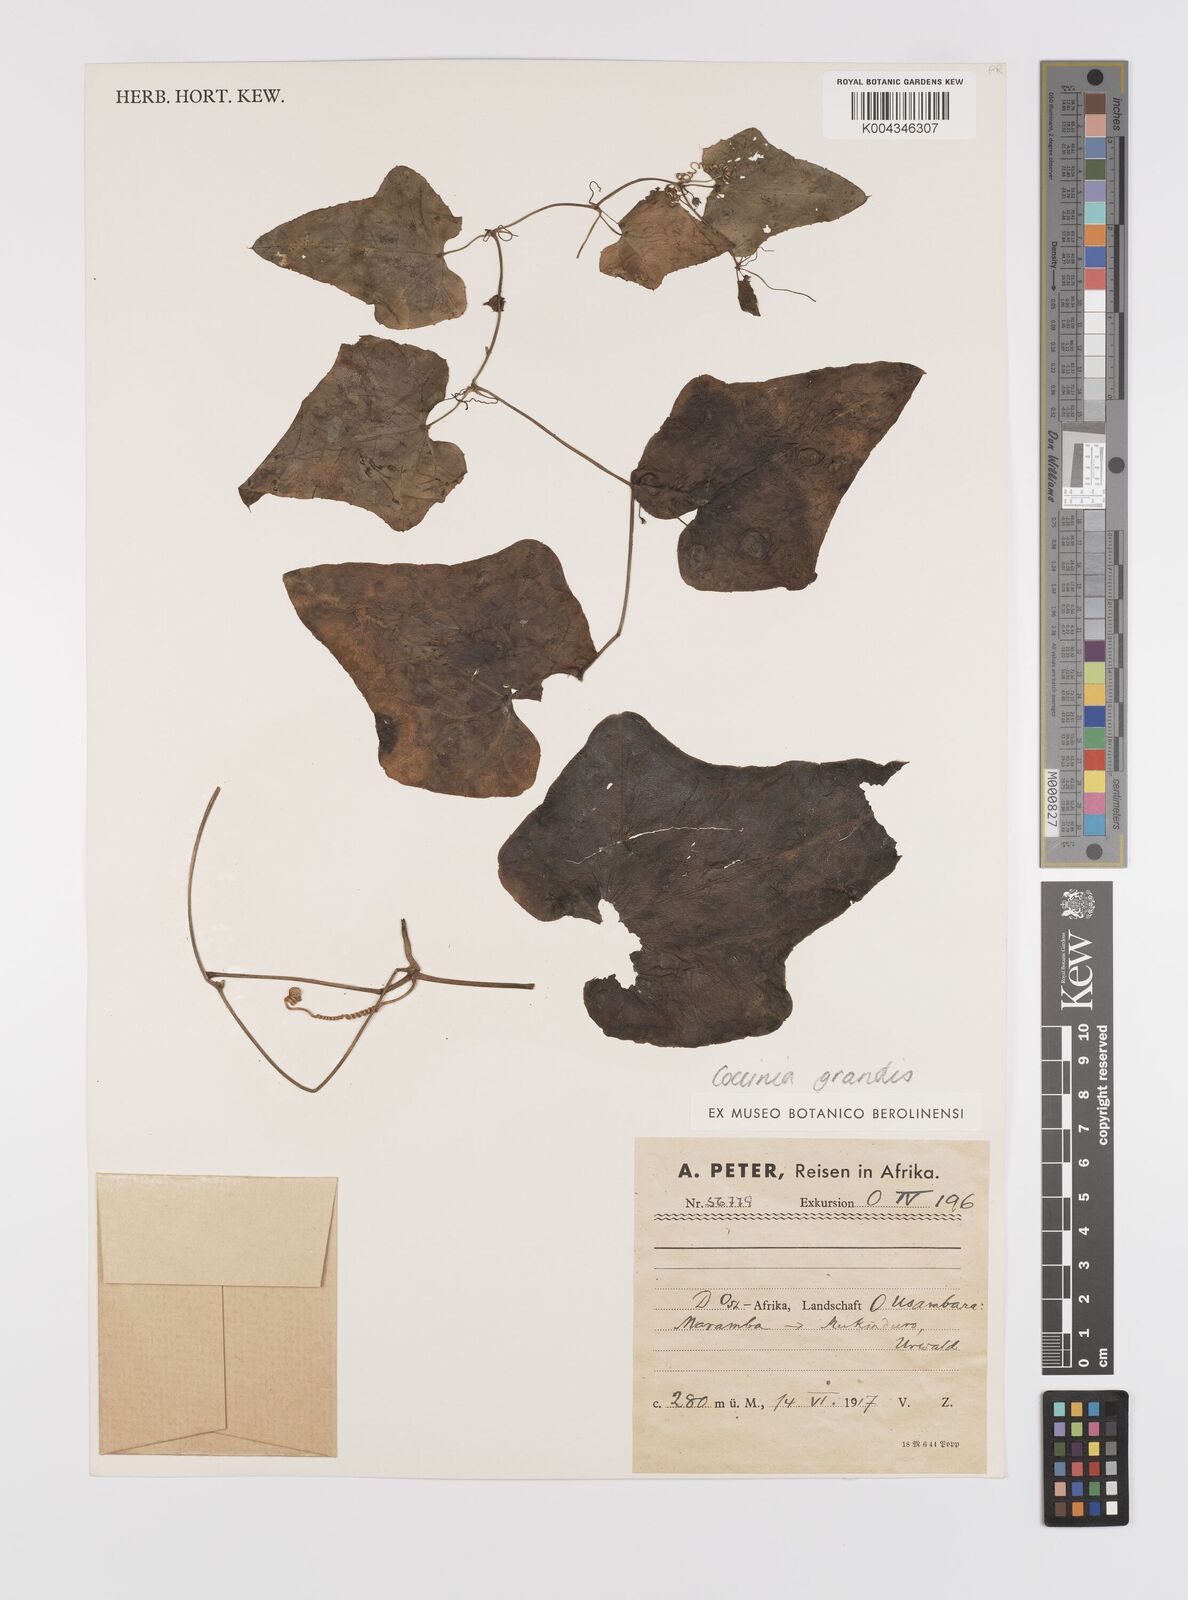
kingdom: Plantae
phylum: Tracheophyta
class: Magnoliopsida
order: Cucurbitales
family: Cucurbitaceae
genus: Coccinia
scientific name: Coccinia grandis
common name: Ivy gourd
